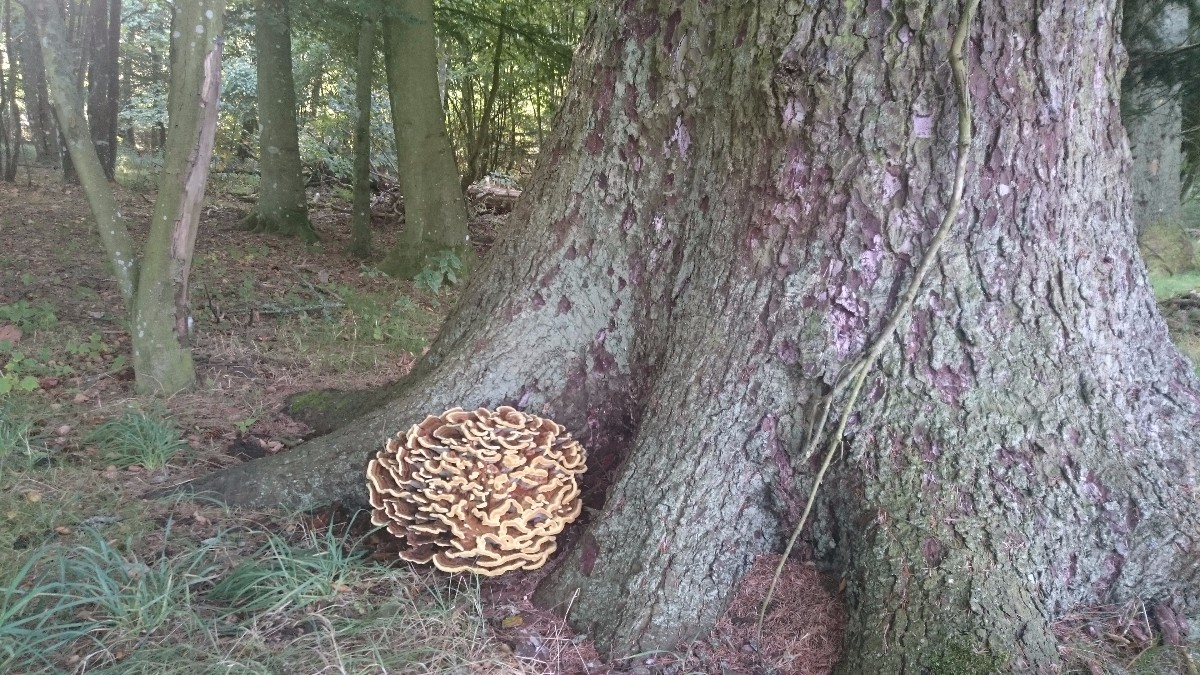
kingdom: Fungi
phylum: Basidiomycota
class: Agaricomycetes
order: Polyporales
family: Laetiporaceae
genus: Phaeolus
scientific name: Phaeolus schweinitzii
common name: brunporesvamp
